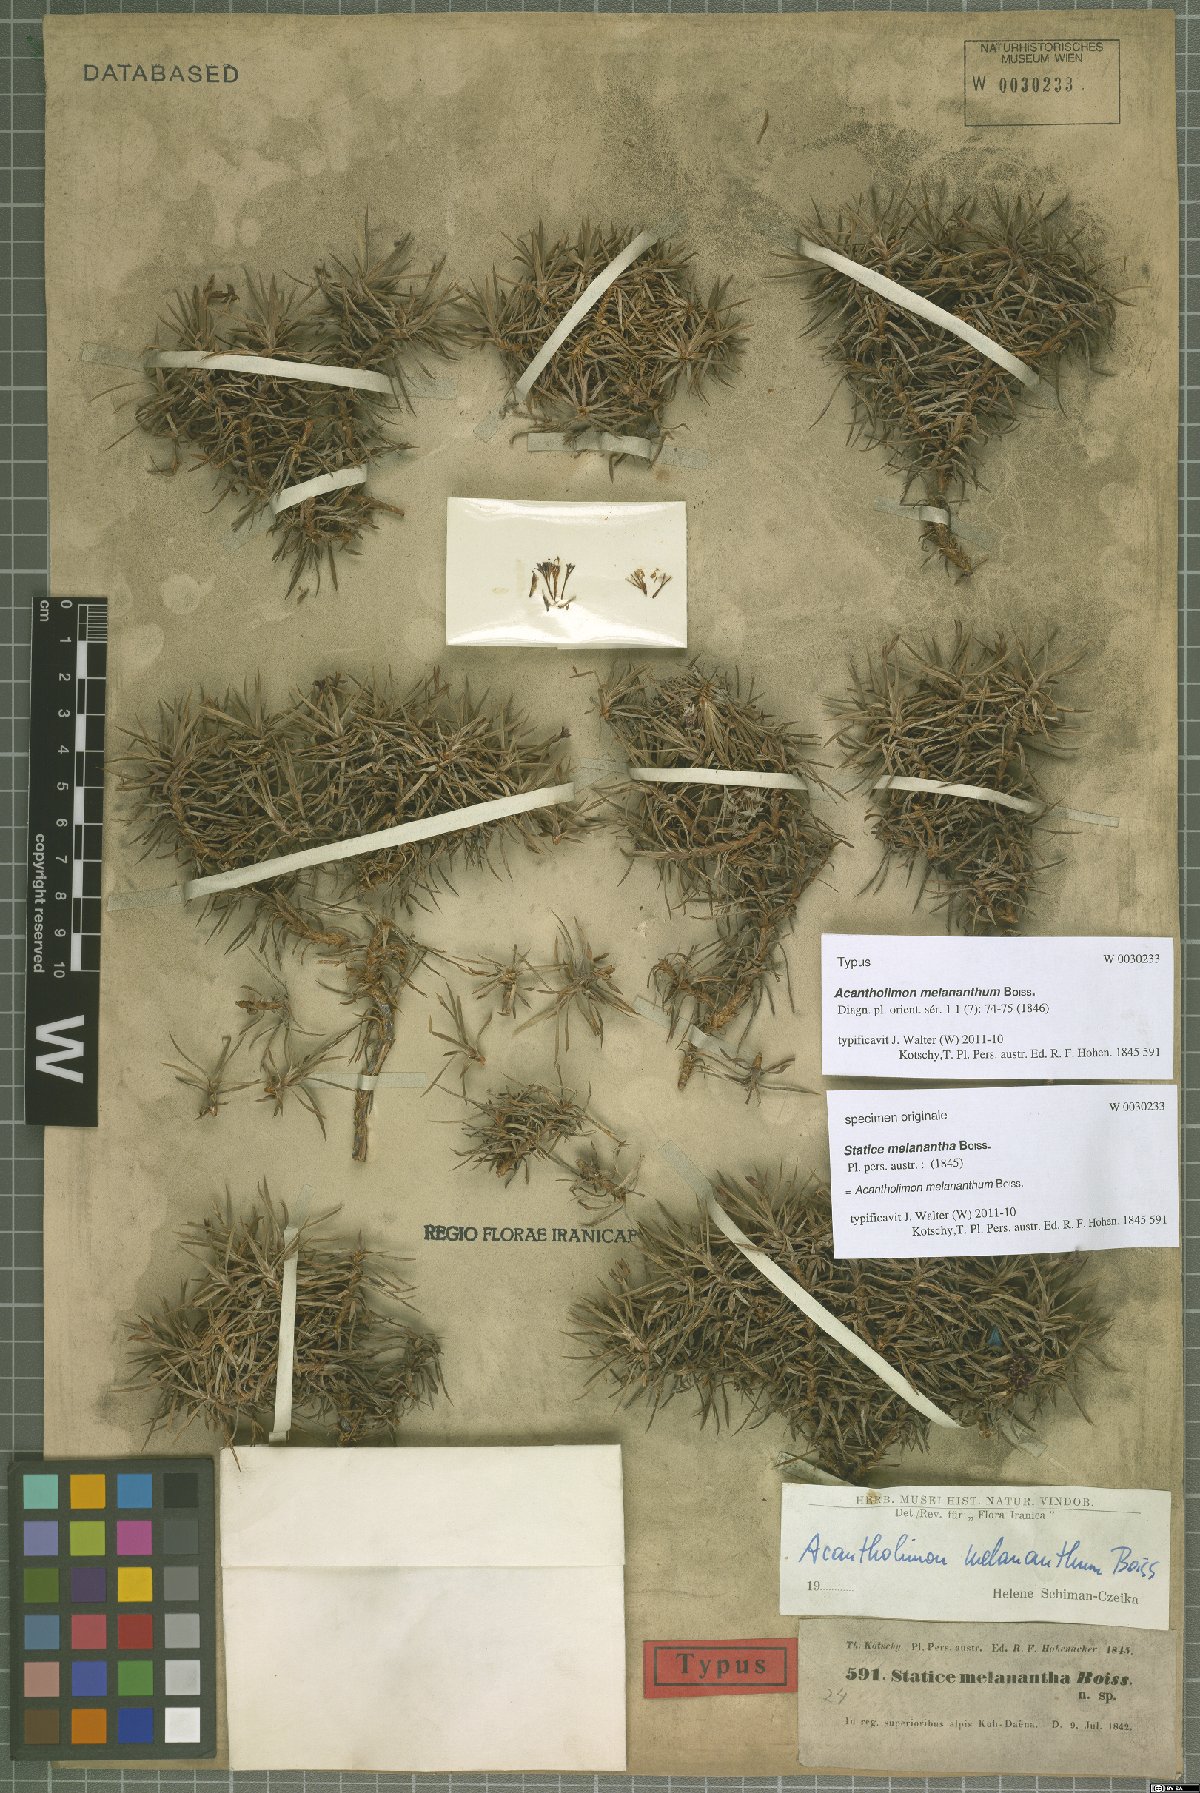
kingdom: Plantae
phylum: Tracheophyta
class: Magnoliopsida
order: Caryophyllales
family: Plumbaginaceae
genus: Acantholimon
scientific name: Acantholimon melananthum
